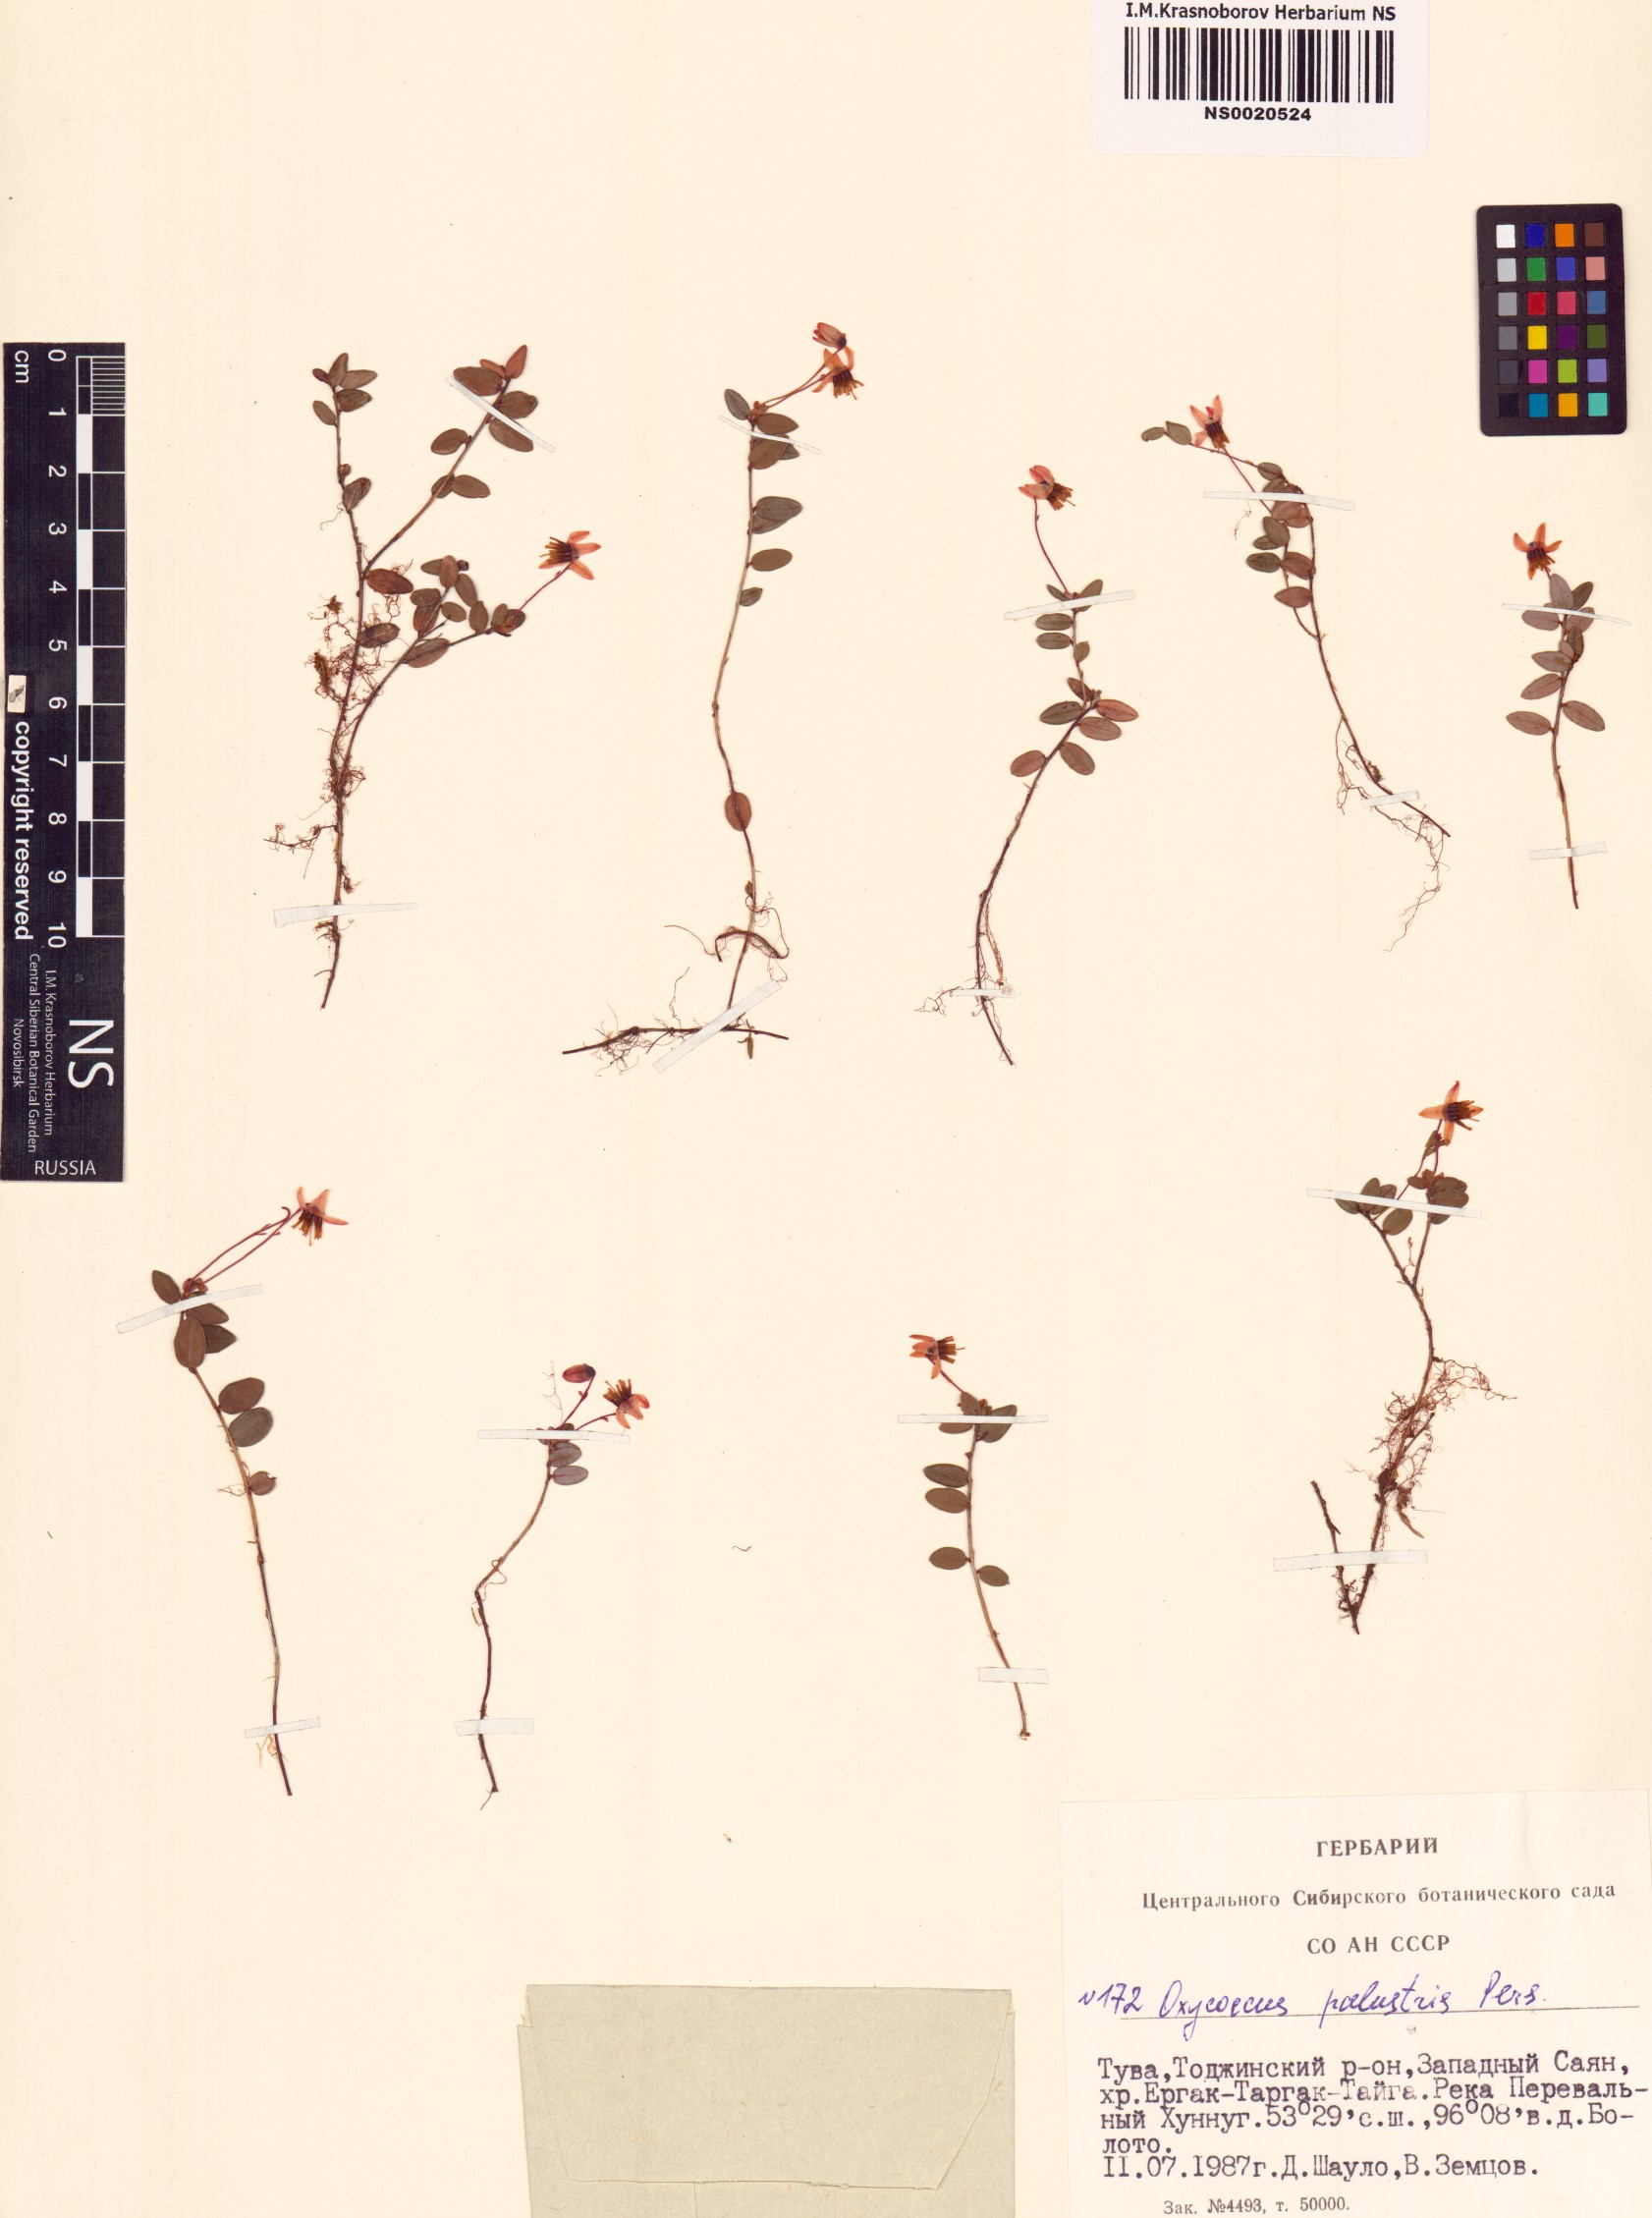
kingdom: Plantae
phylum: Tracheophyta
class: Magnoliopsida
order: Ericales
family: Ericaceae
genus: Vaccinium
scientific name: Vaccinium oxycoccos
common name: Cranberry
